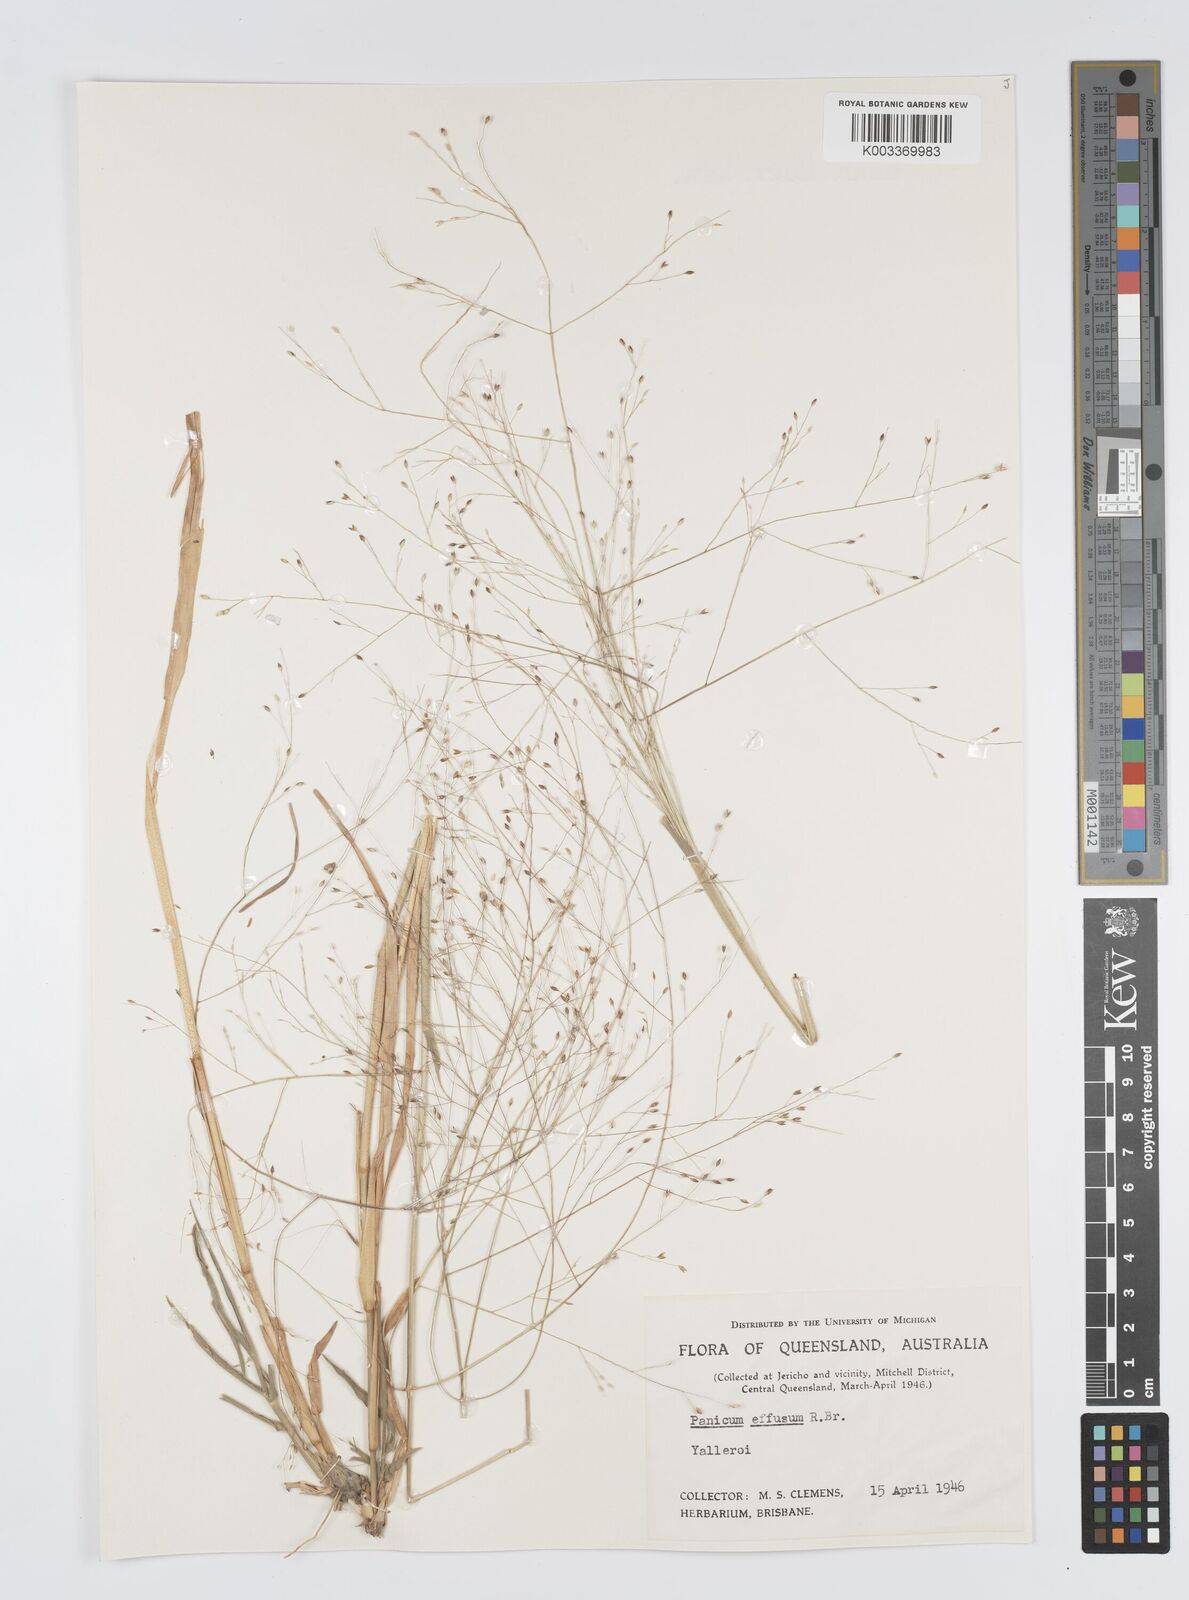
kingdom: Plantae
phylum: Tracheophyta
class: Liliopsida
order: Poales
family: Poaceae
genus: Panicum
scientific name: Panicum effusum
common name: Hairy panic grass
